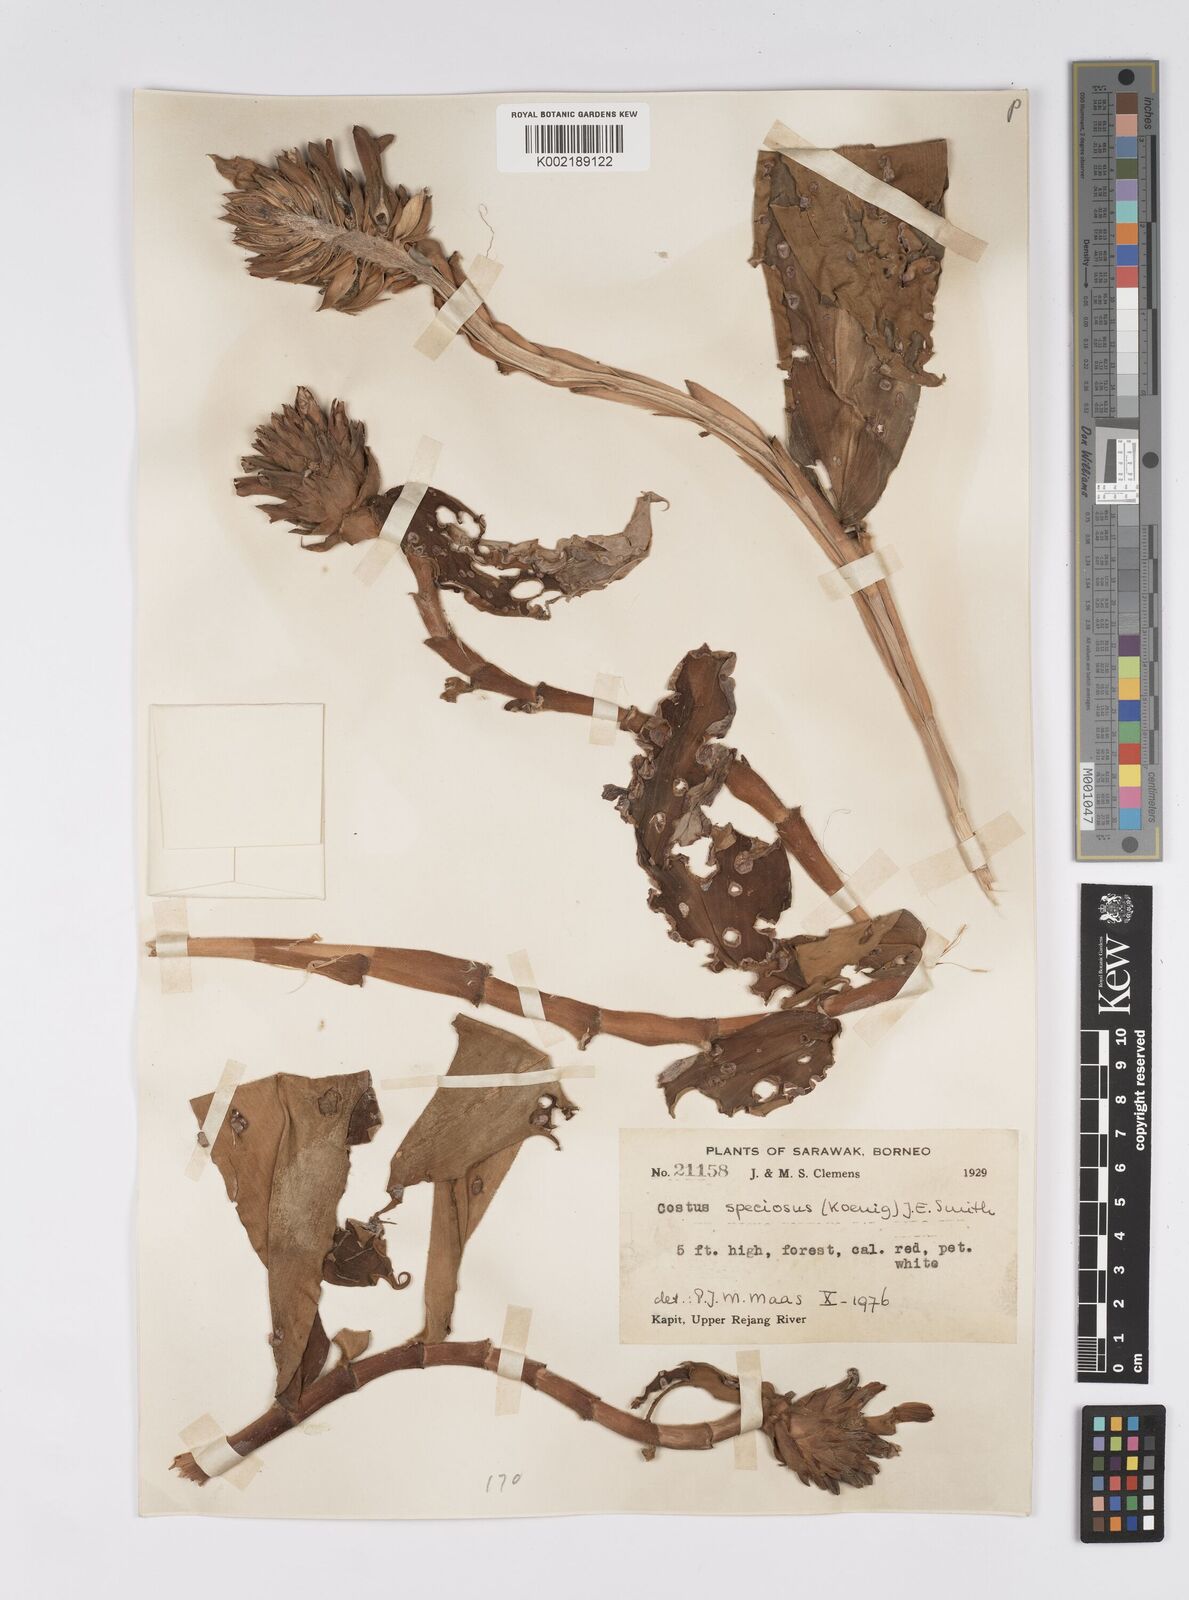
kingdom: Plantae
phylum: Tracheophyta
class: Liliopsida
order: Zingiberales
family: Costaceae
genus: Hellenia
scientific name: Hellenia speciosa
